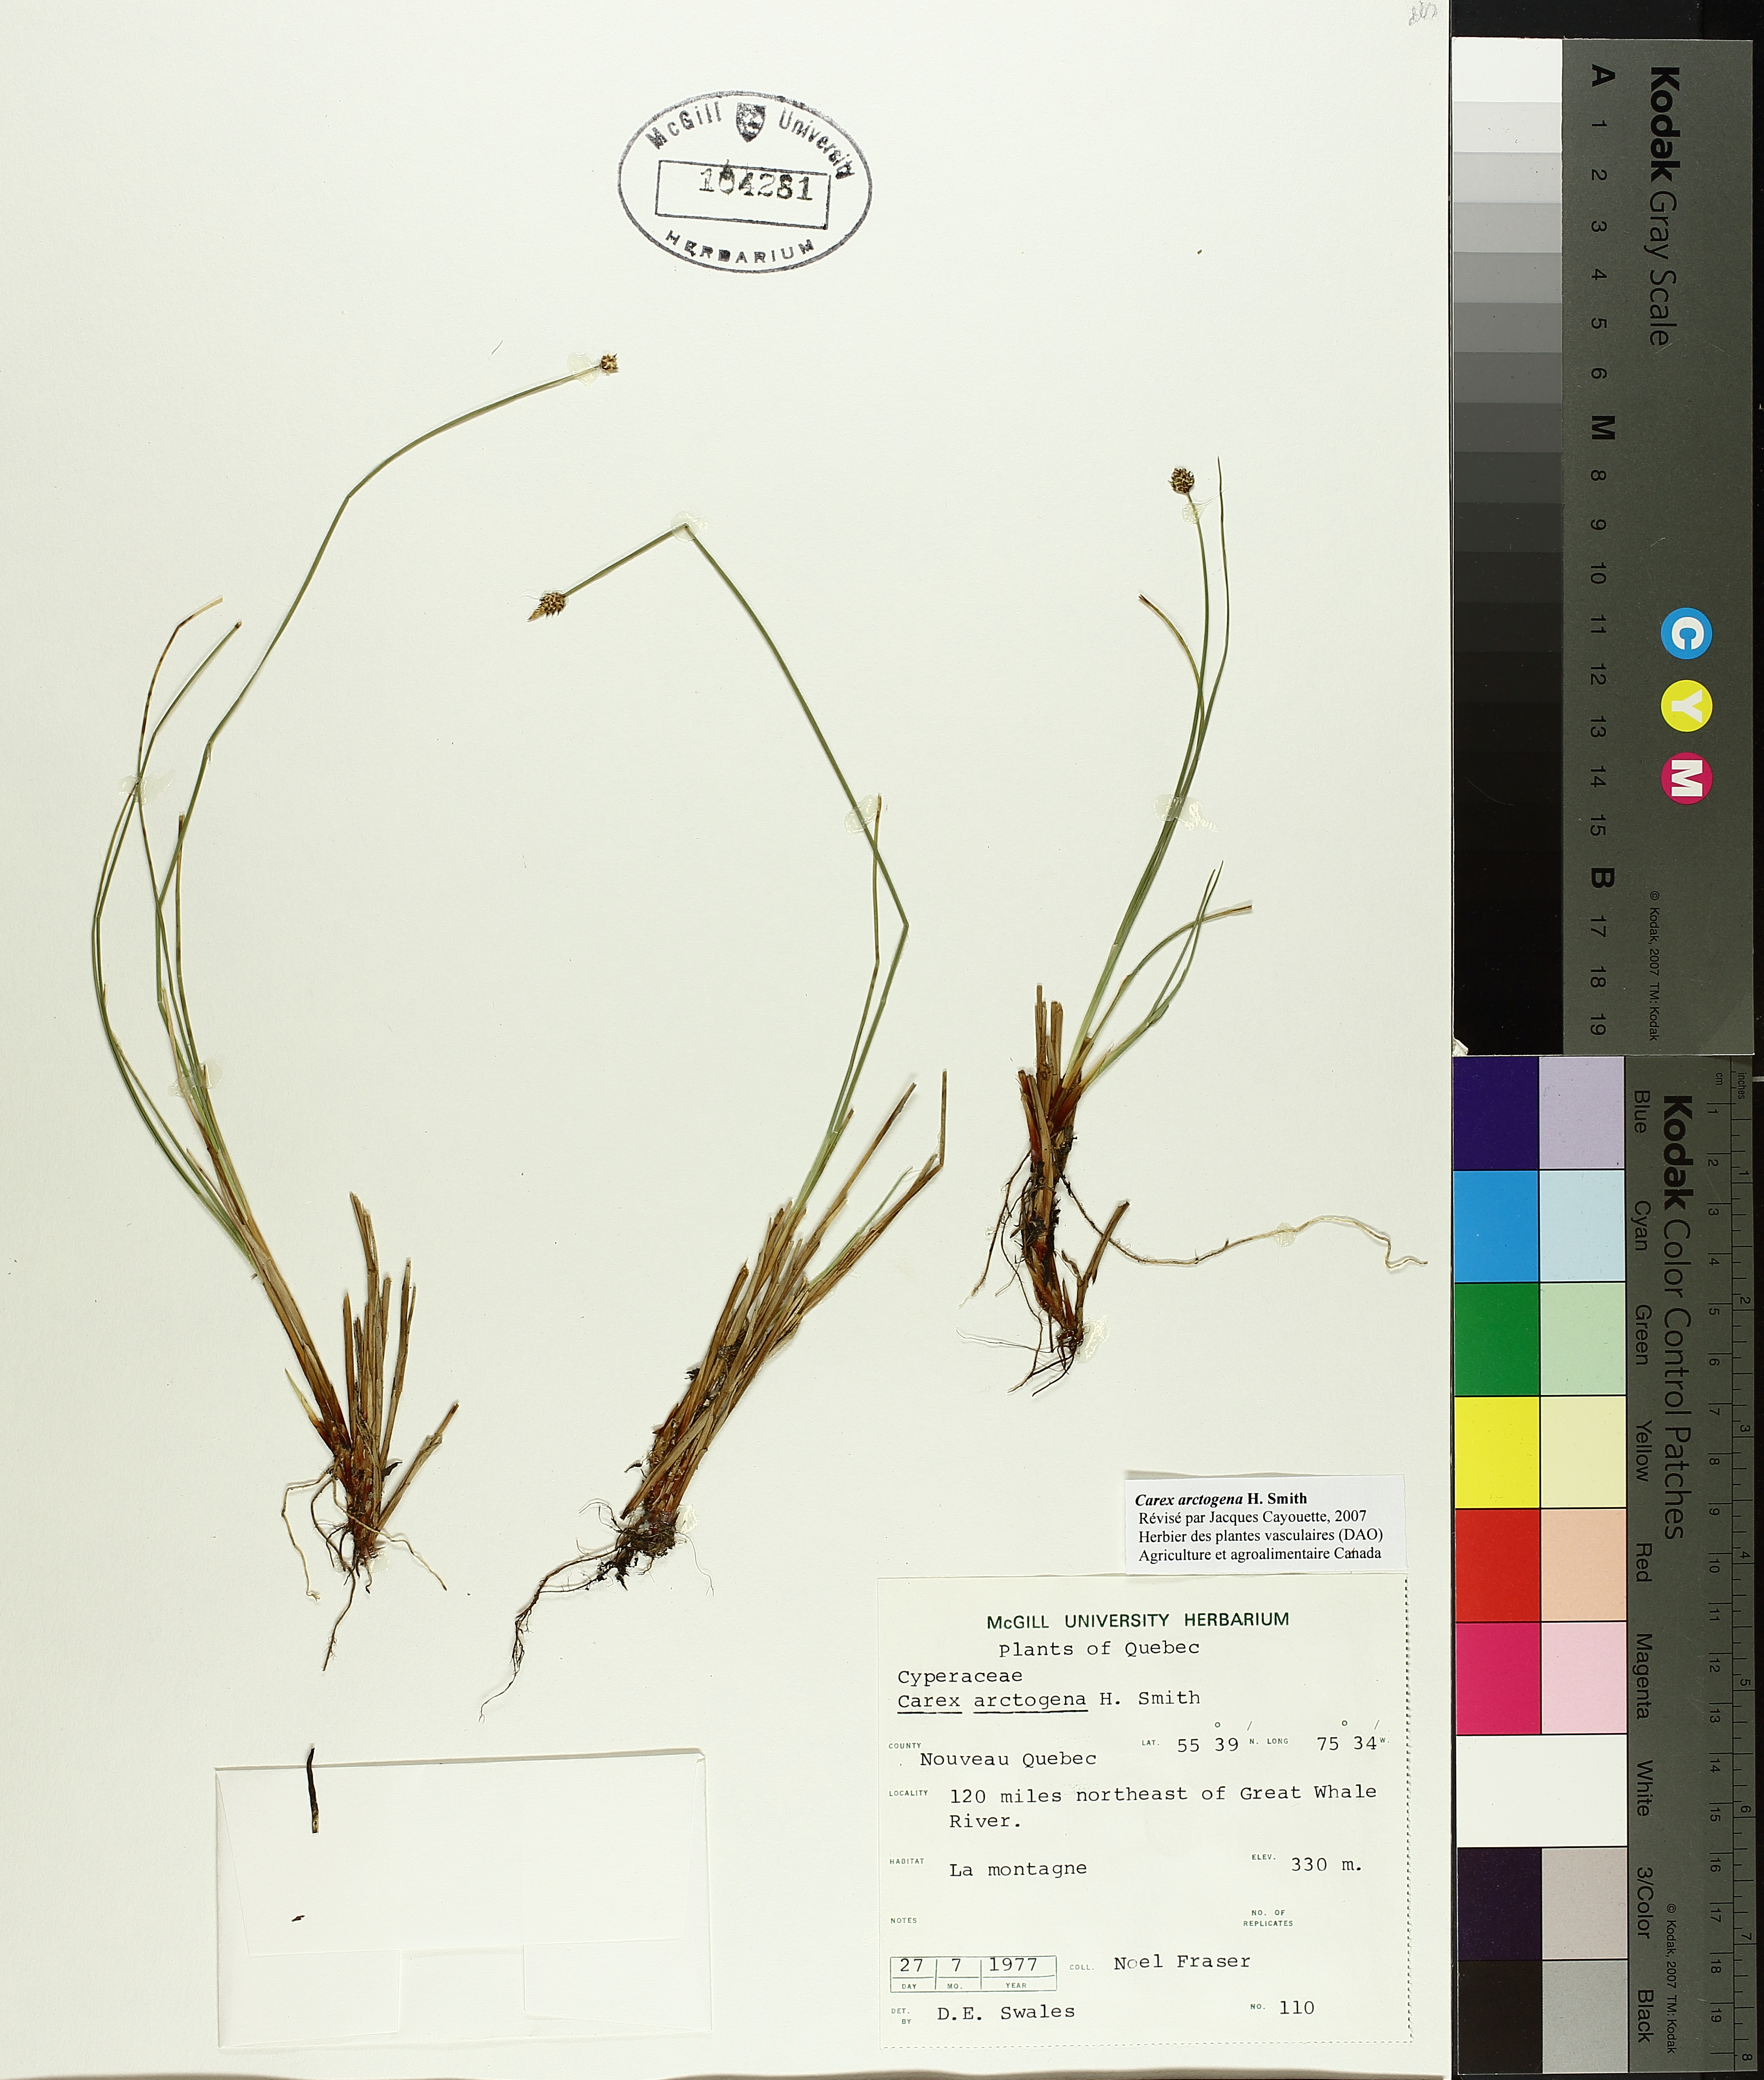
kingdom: Plantae
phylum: Tracheophyta
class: Liliopsida
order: Poales
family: Cyperaceae
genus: Carex
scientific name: Carex arctogena
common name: Black sedge
